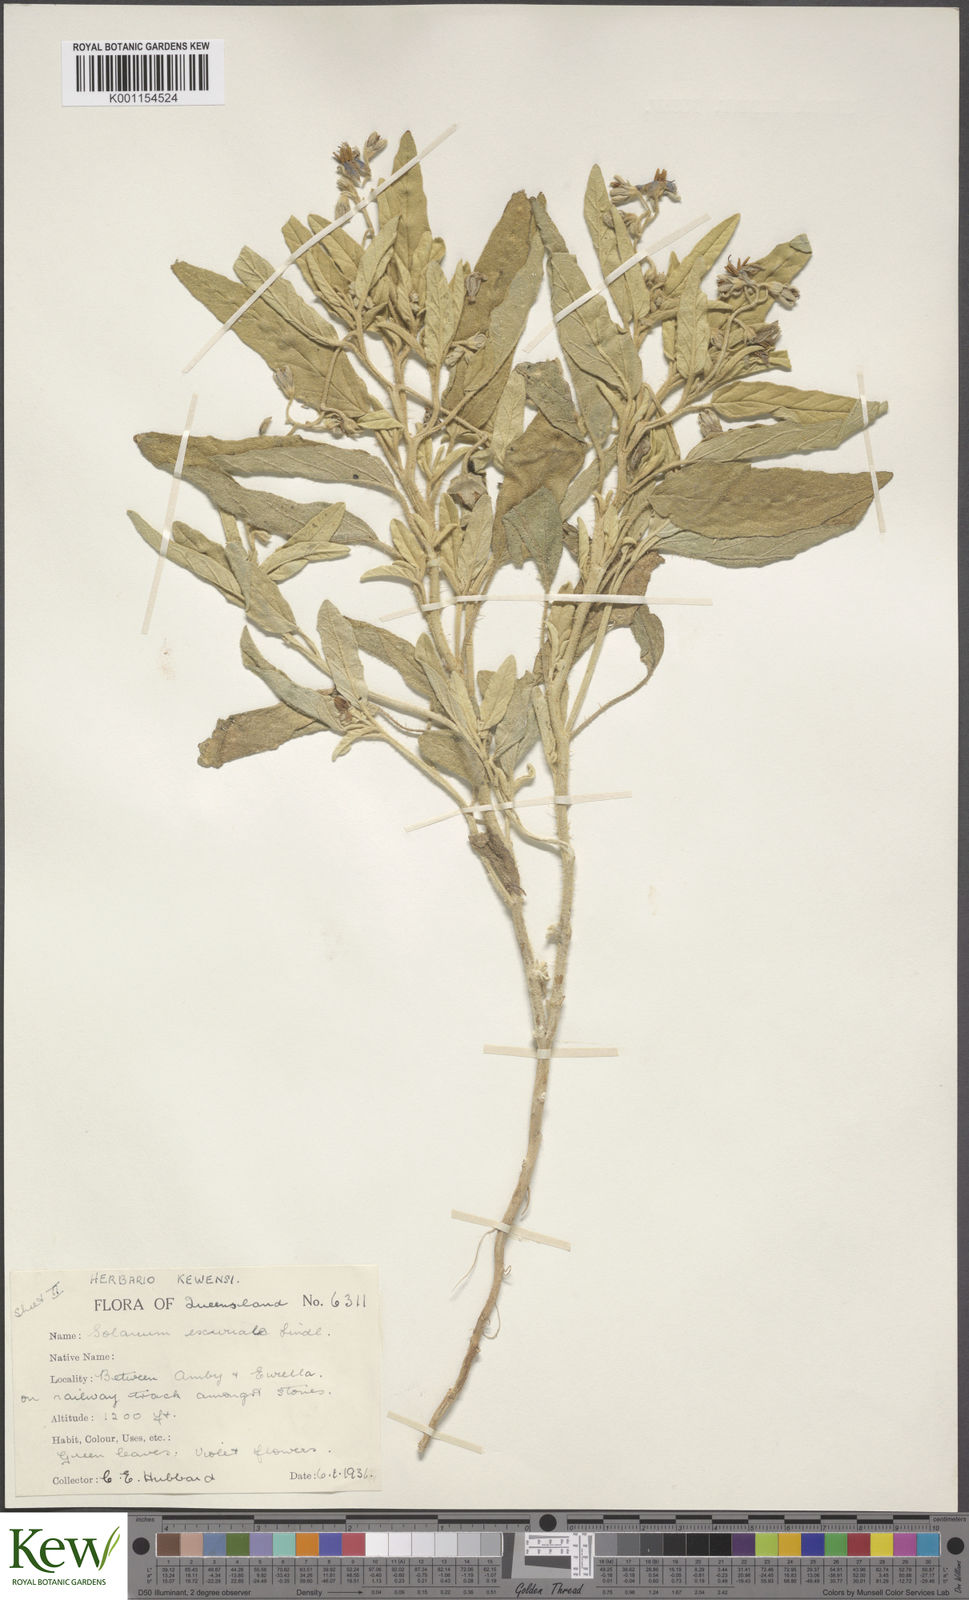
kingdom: Plantae
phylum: Tracheophyta
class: Magnoliopsida
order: Solanales
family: Solanaceae
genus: Solanum
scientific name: Solanum esuriale
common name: Wild tomato
